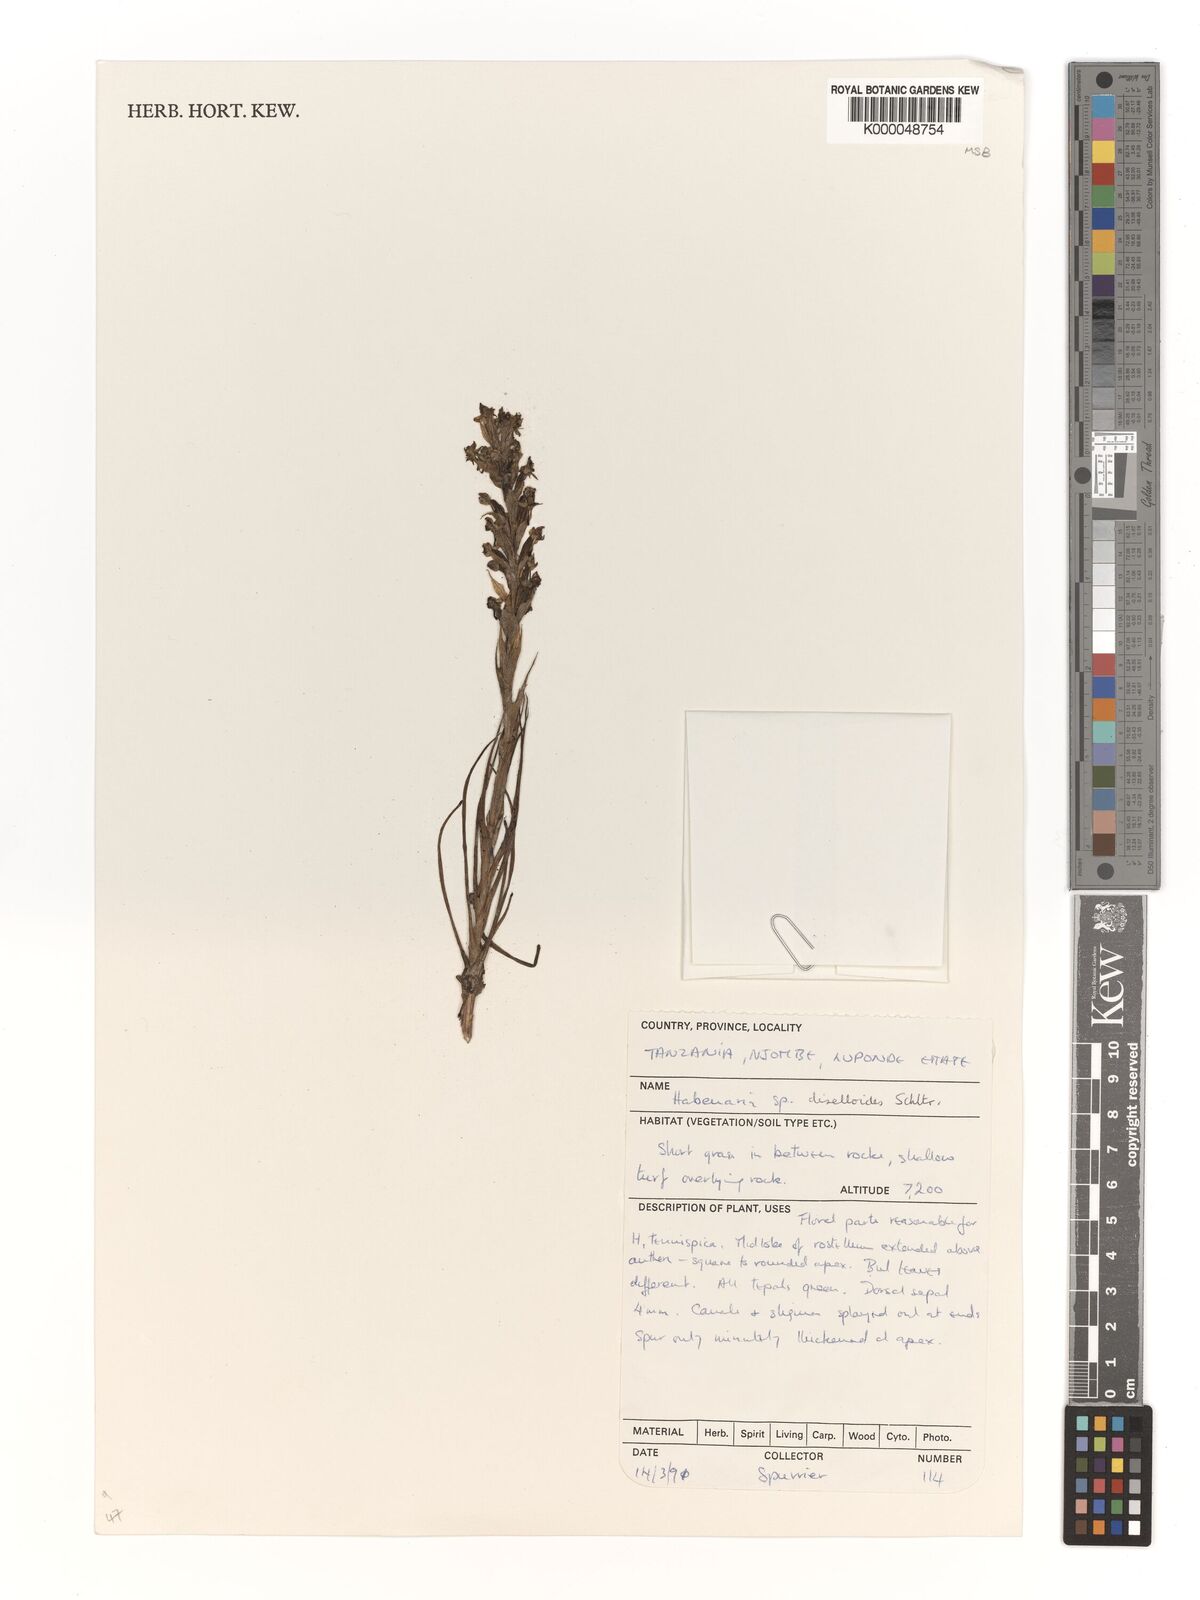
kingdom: Plantae
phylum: Tracheophyta
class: Liliopsida
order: Asparagales
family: Orchidaceae
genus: Habenaria
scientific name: Habenaria diselloides
